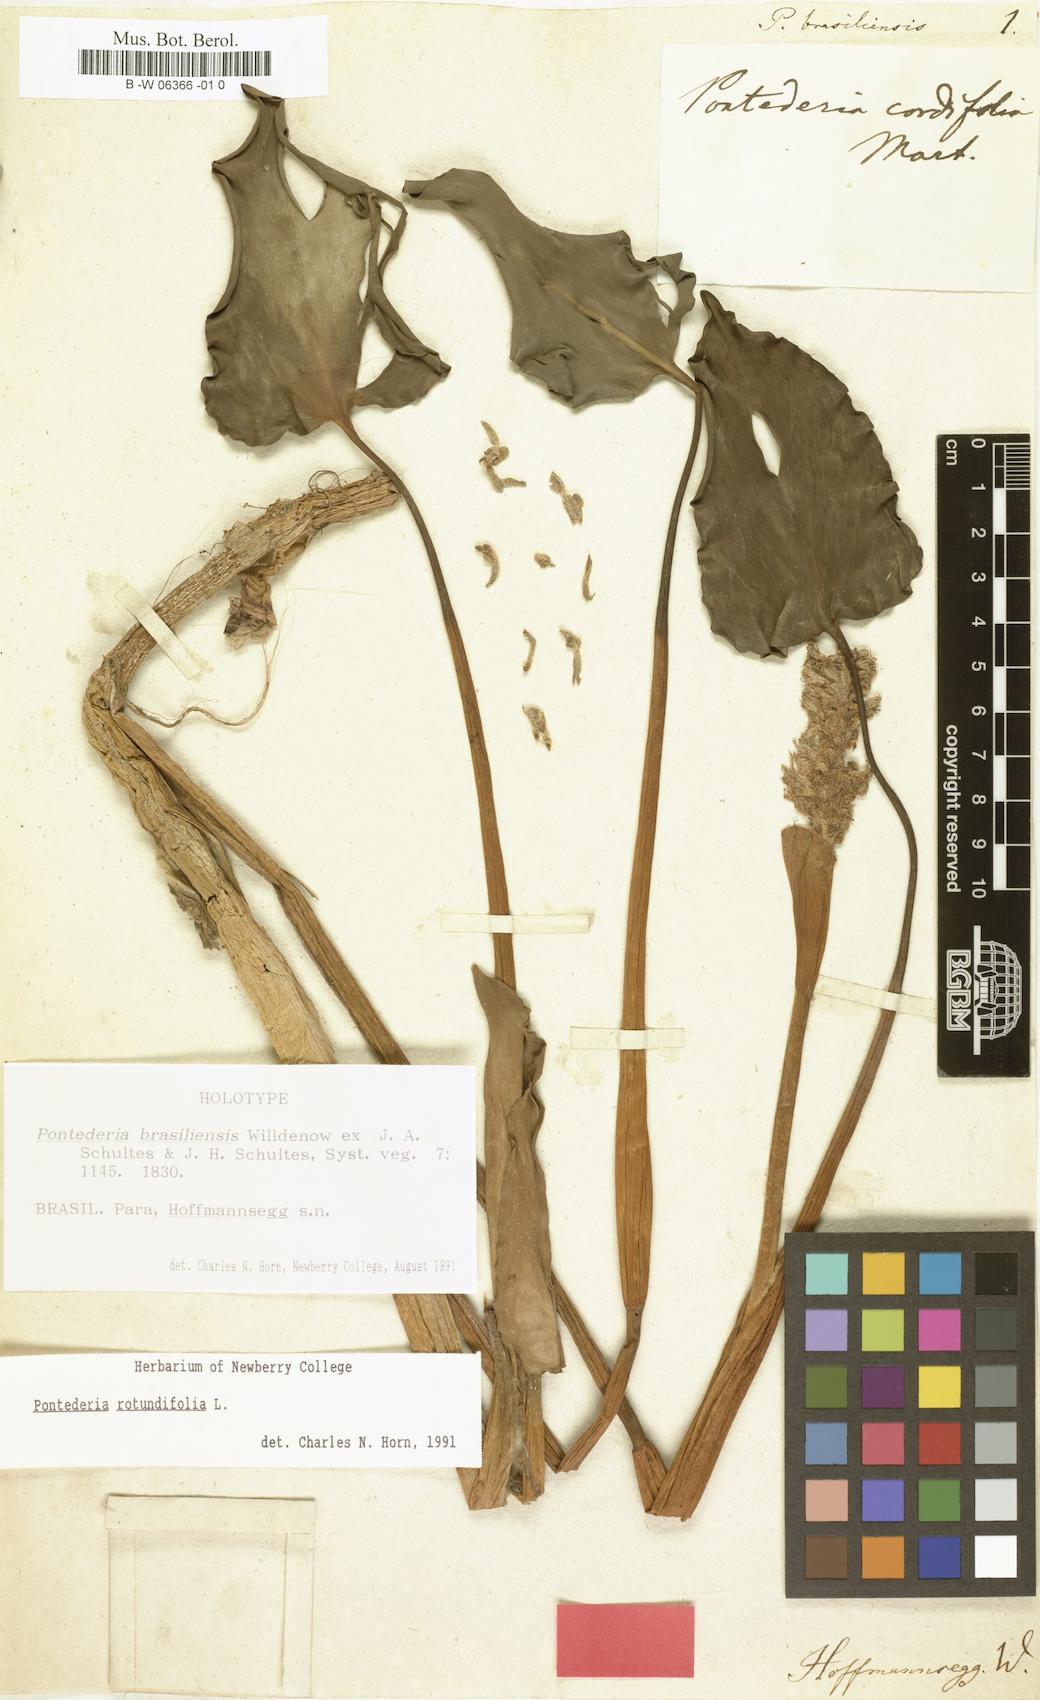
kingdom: Plantae
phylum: Tracheophyta
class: Liliopsida
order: Commelinales
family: Pontederiaceae
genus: Pontederia
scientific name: Pontederia rotundifolia
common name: Tropical pickerel-weed
